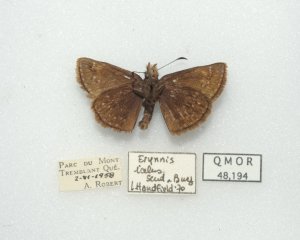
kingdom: Animalia
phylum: Arthropoda
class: Insecta
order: Lepidoptera
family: Hesperiidae
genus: Erynnis
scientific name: Erynnis icelus
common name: Dreamy Duskywing
